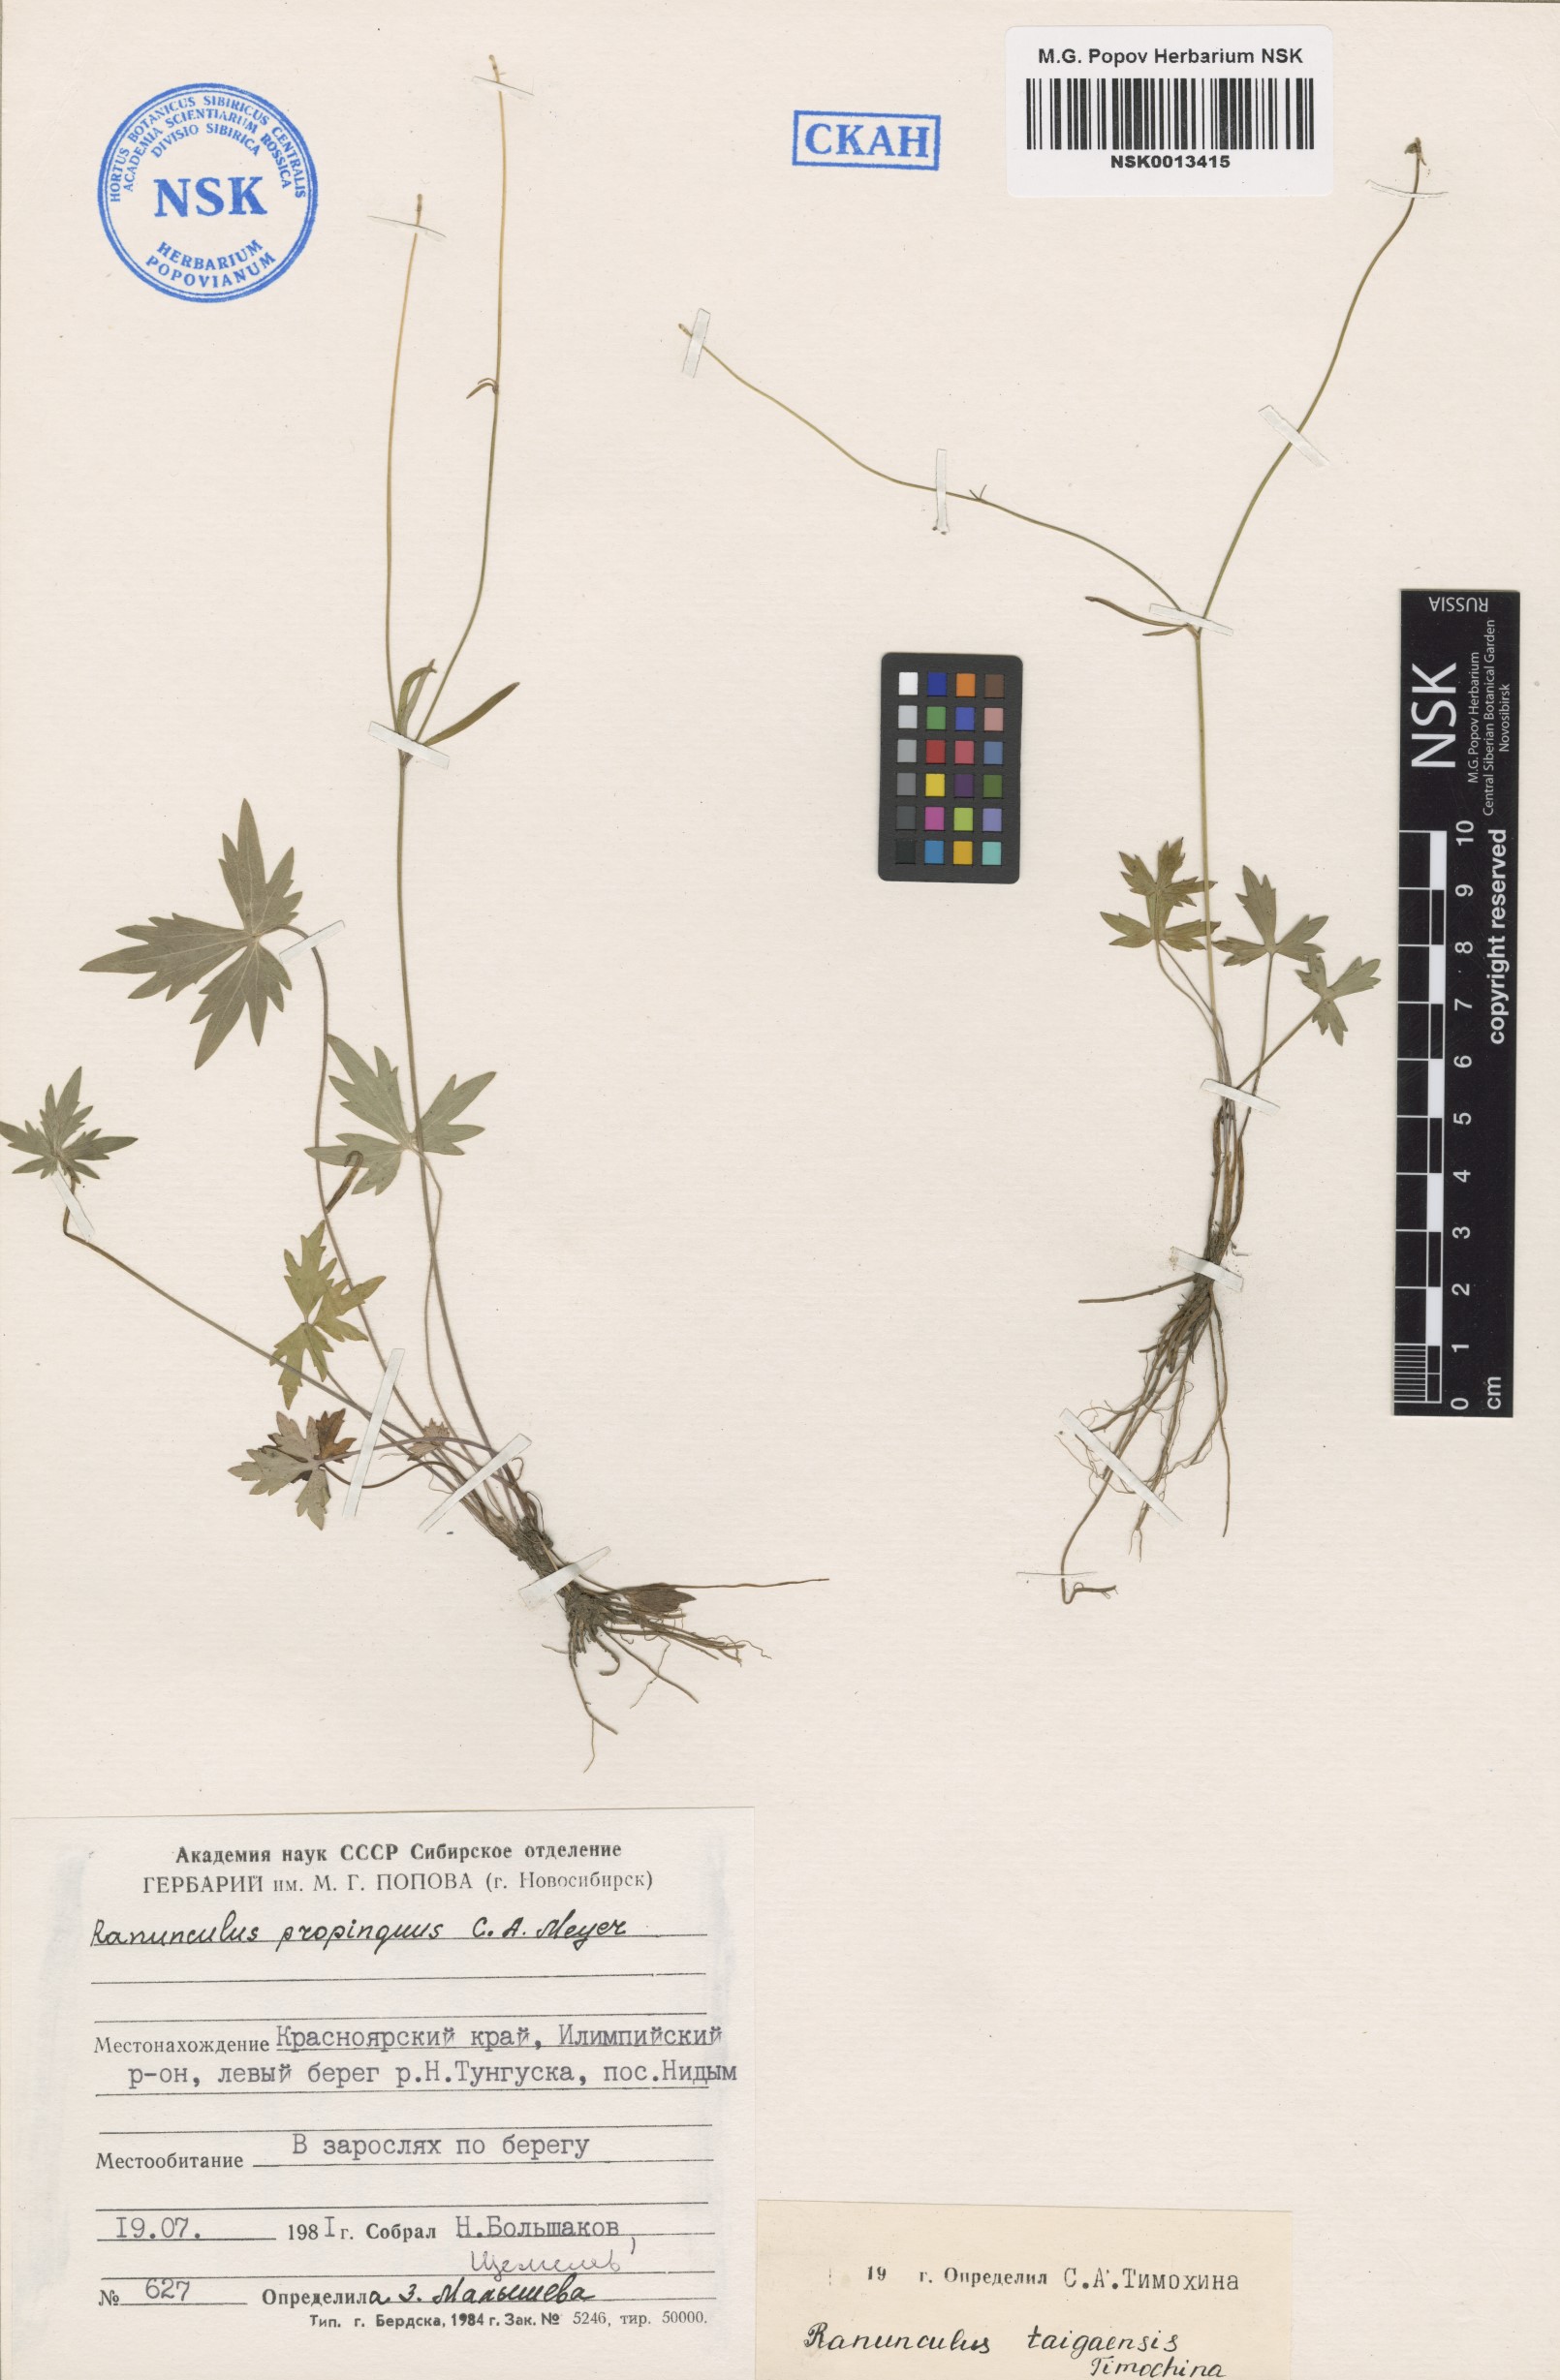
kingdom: Plantae
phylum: Tracheophyta
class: Magnoliopsida
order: Ranunculales
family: Ranunculaceae
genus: Ranunculus
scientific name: Ranunculus taigaensis
